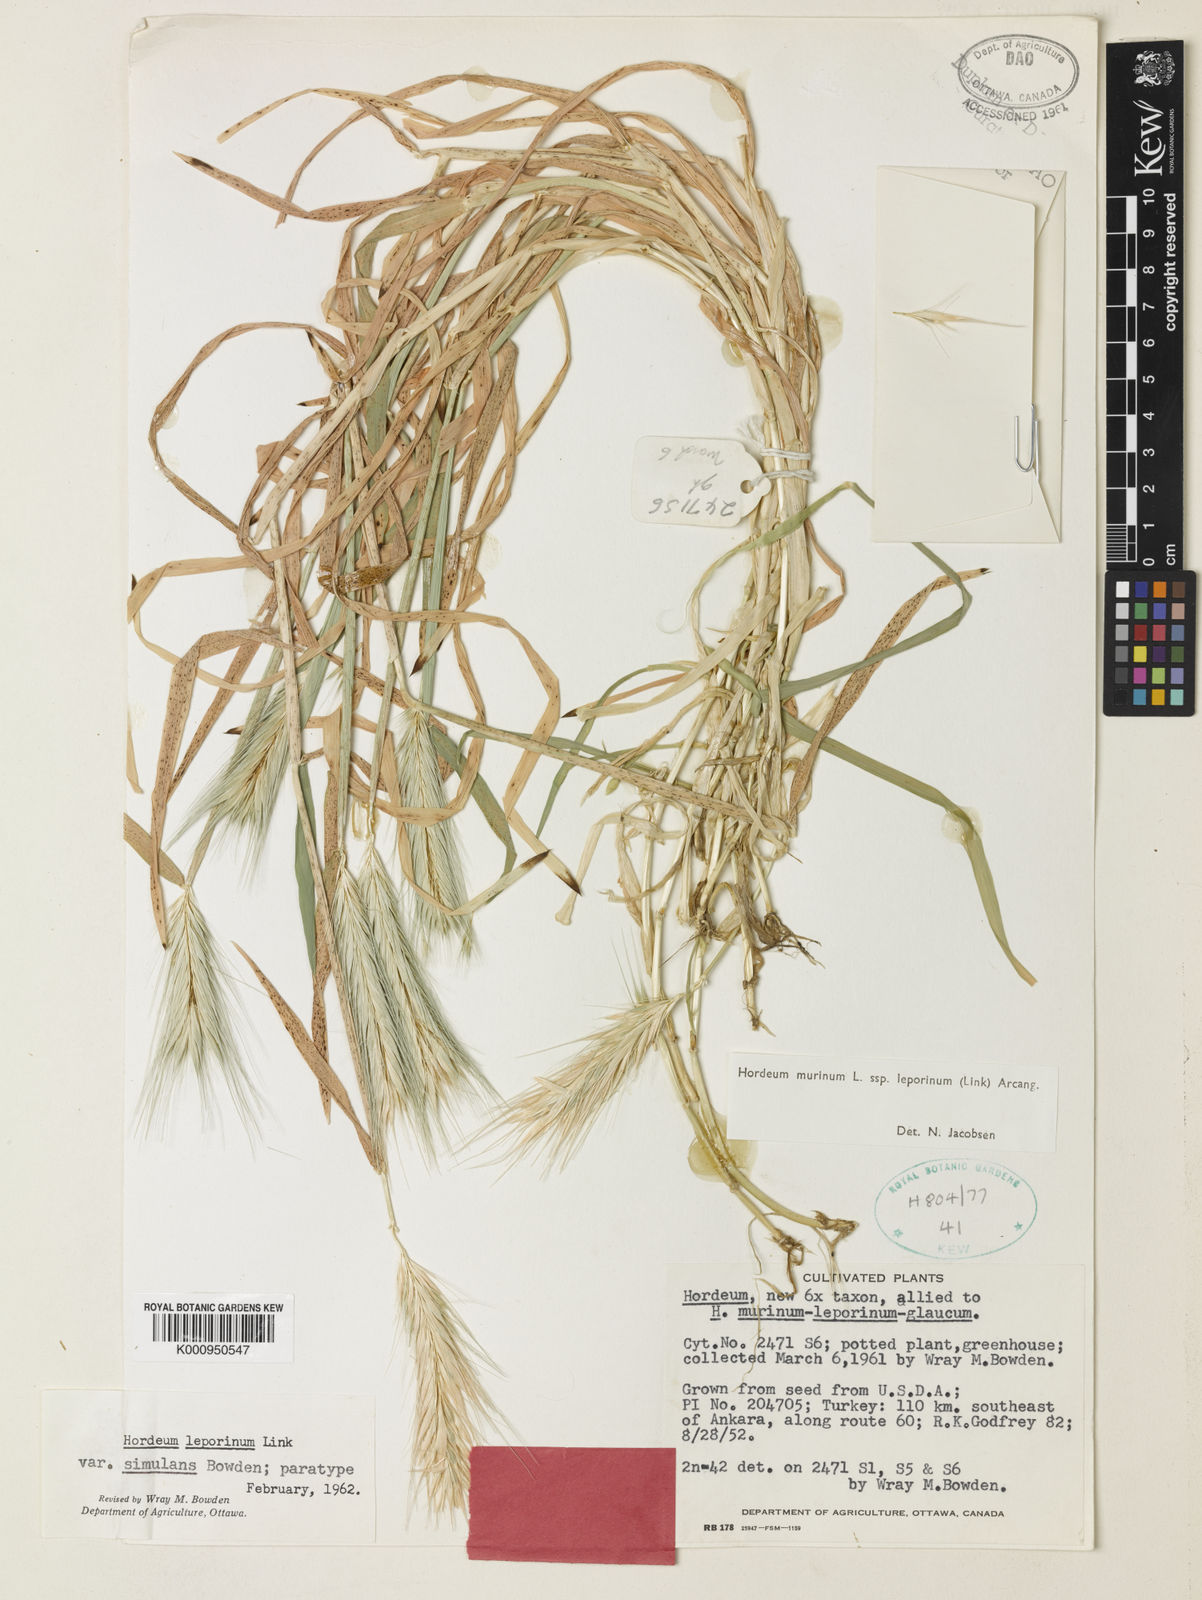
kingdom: Plantae
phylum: Tracheophyta
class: Liliopsida
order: Poales
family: Poaceae
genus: Hordeum
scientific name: Hordeum murinum
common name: Wall barley
